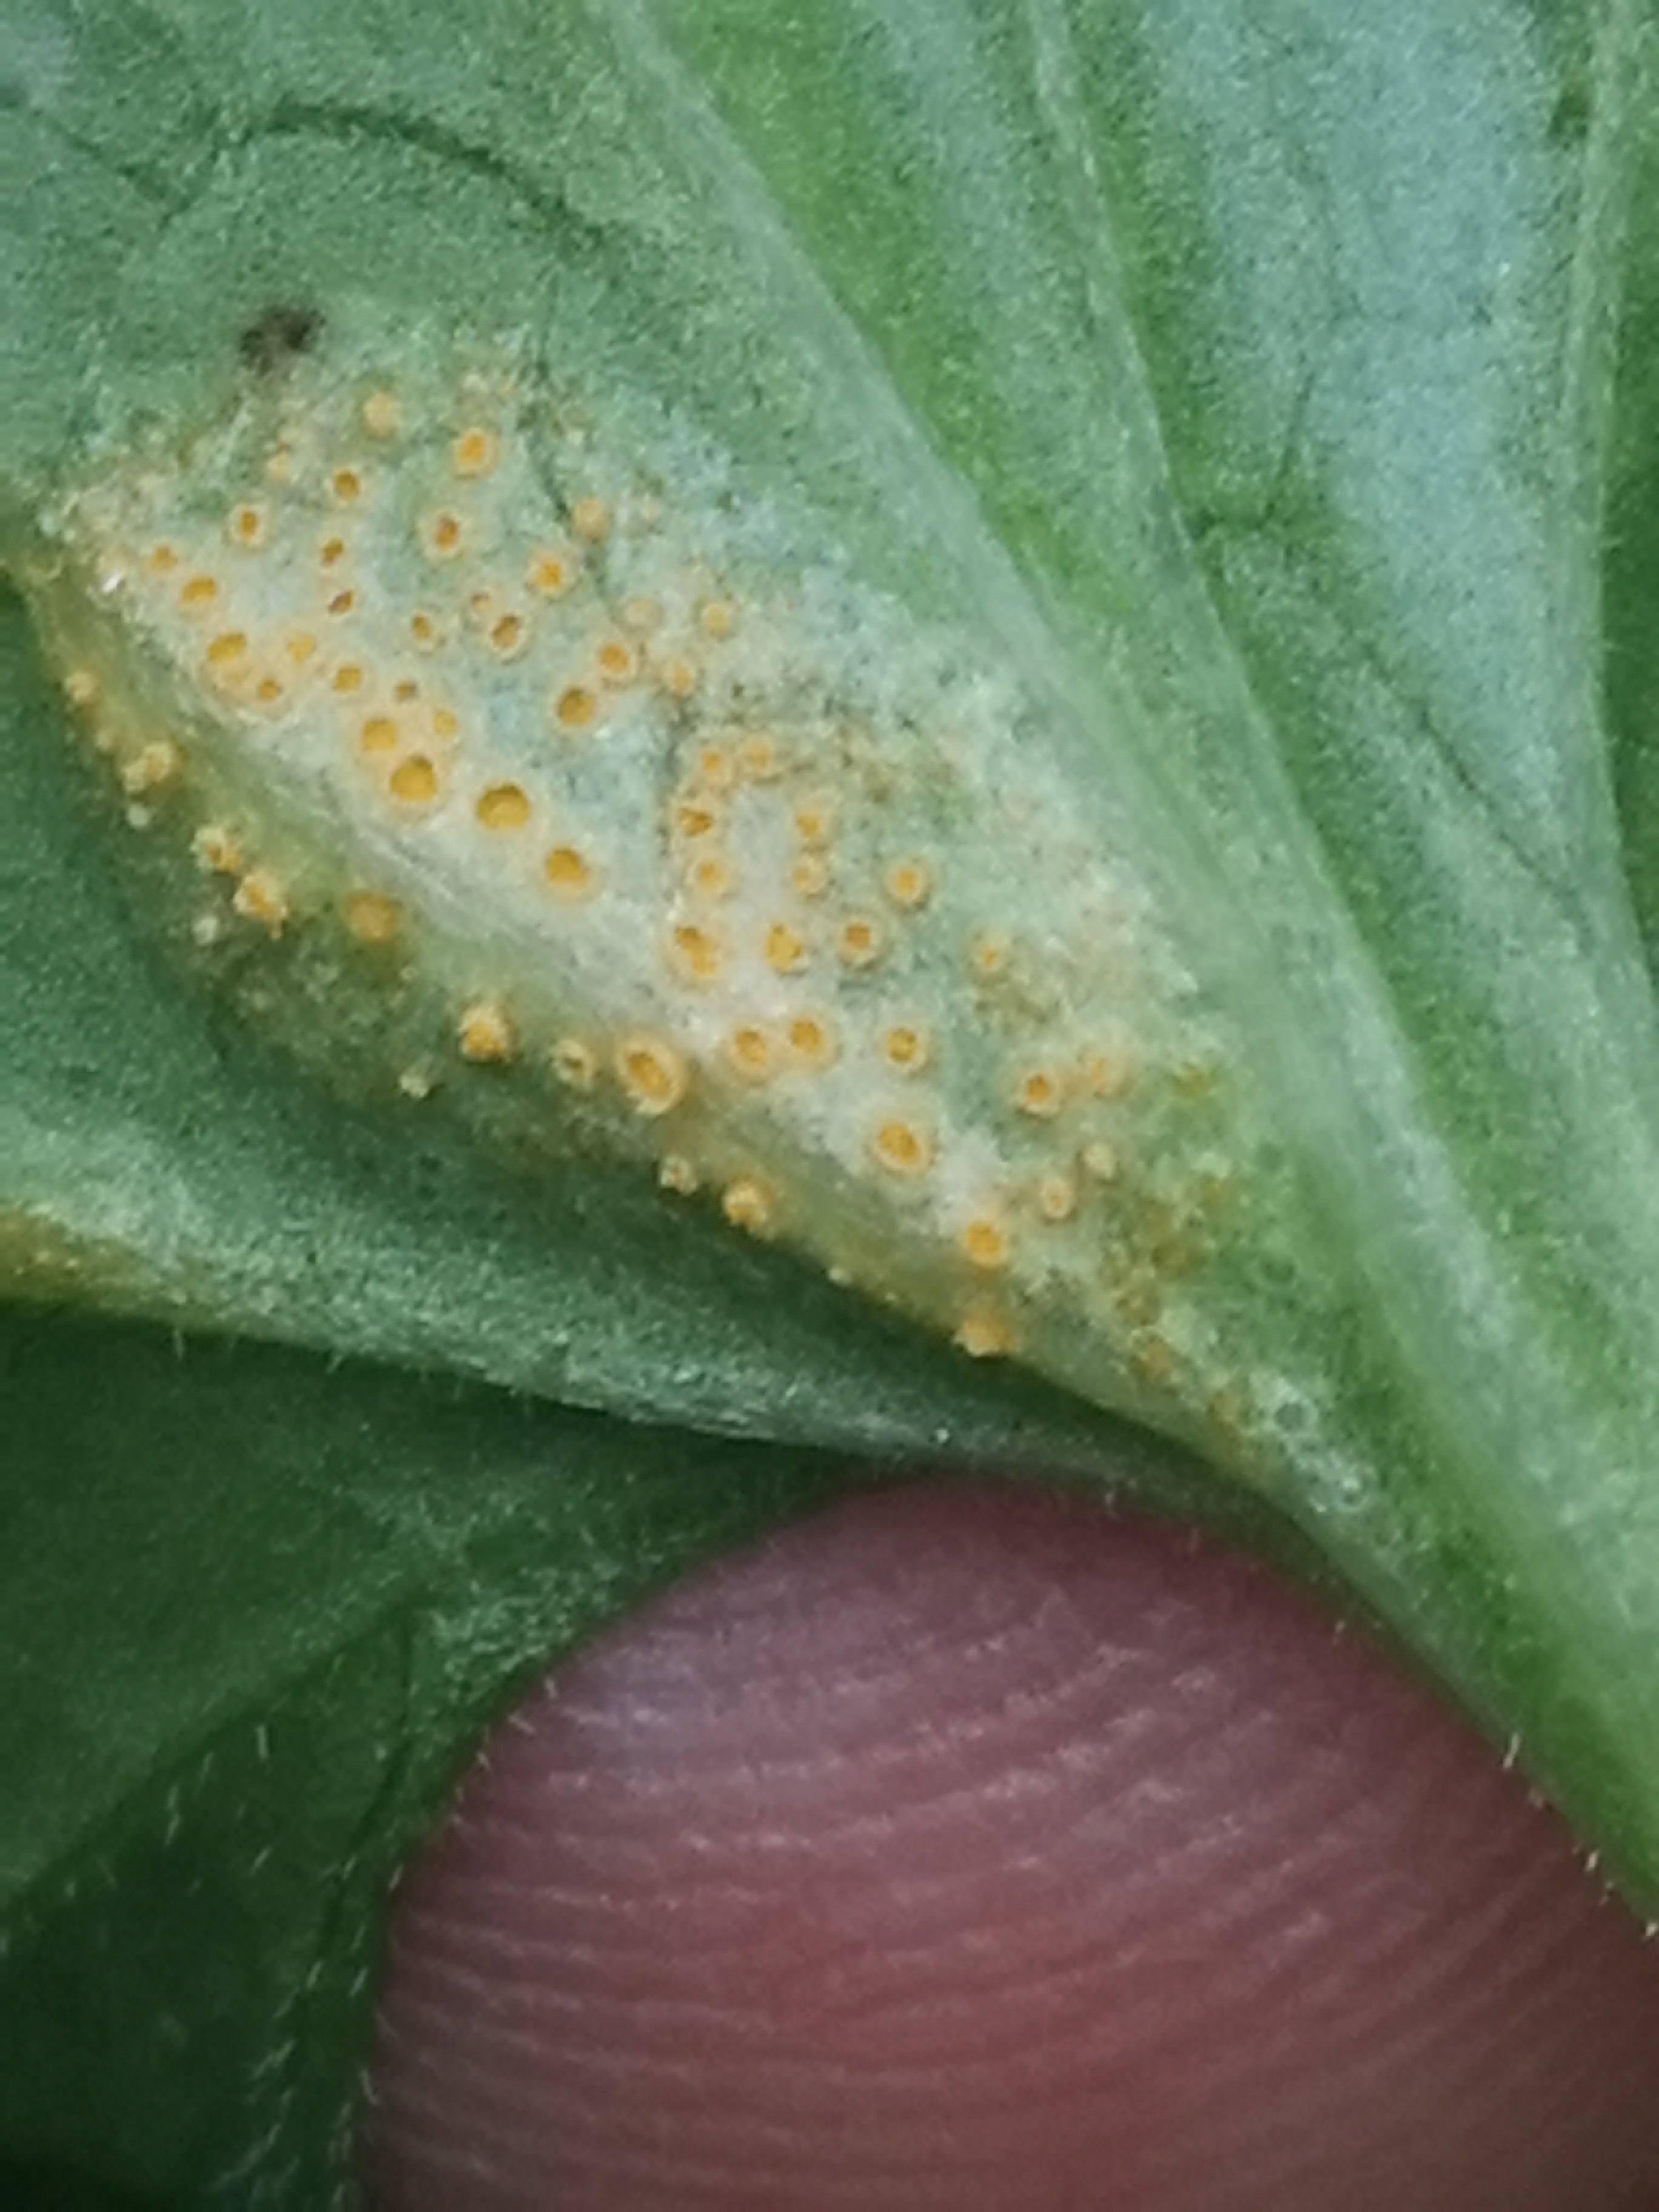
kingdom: Fungi
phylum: Basidiomycota
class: Pucciniomycetes
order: Pucciniales
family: Pucciniaceae
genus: Puccinia
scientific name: Puccinia violae
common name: viol-tvecellerust
